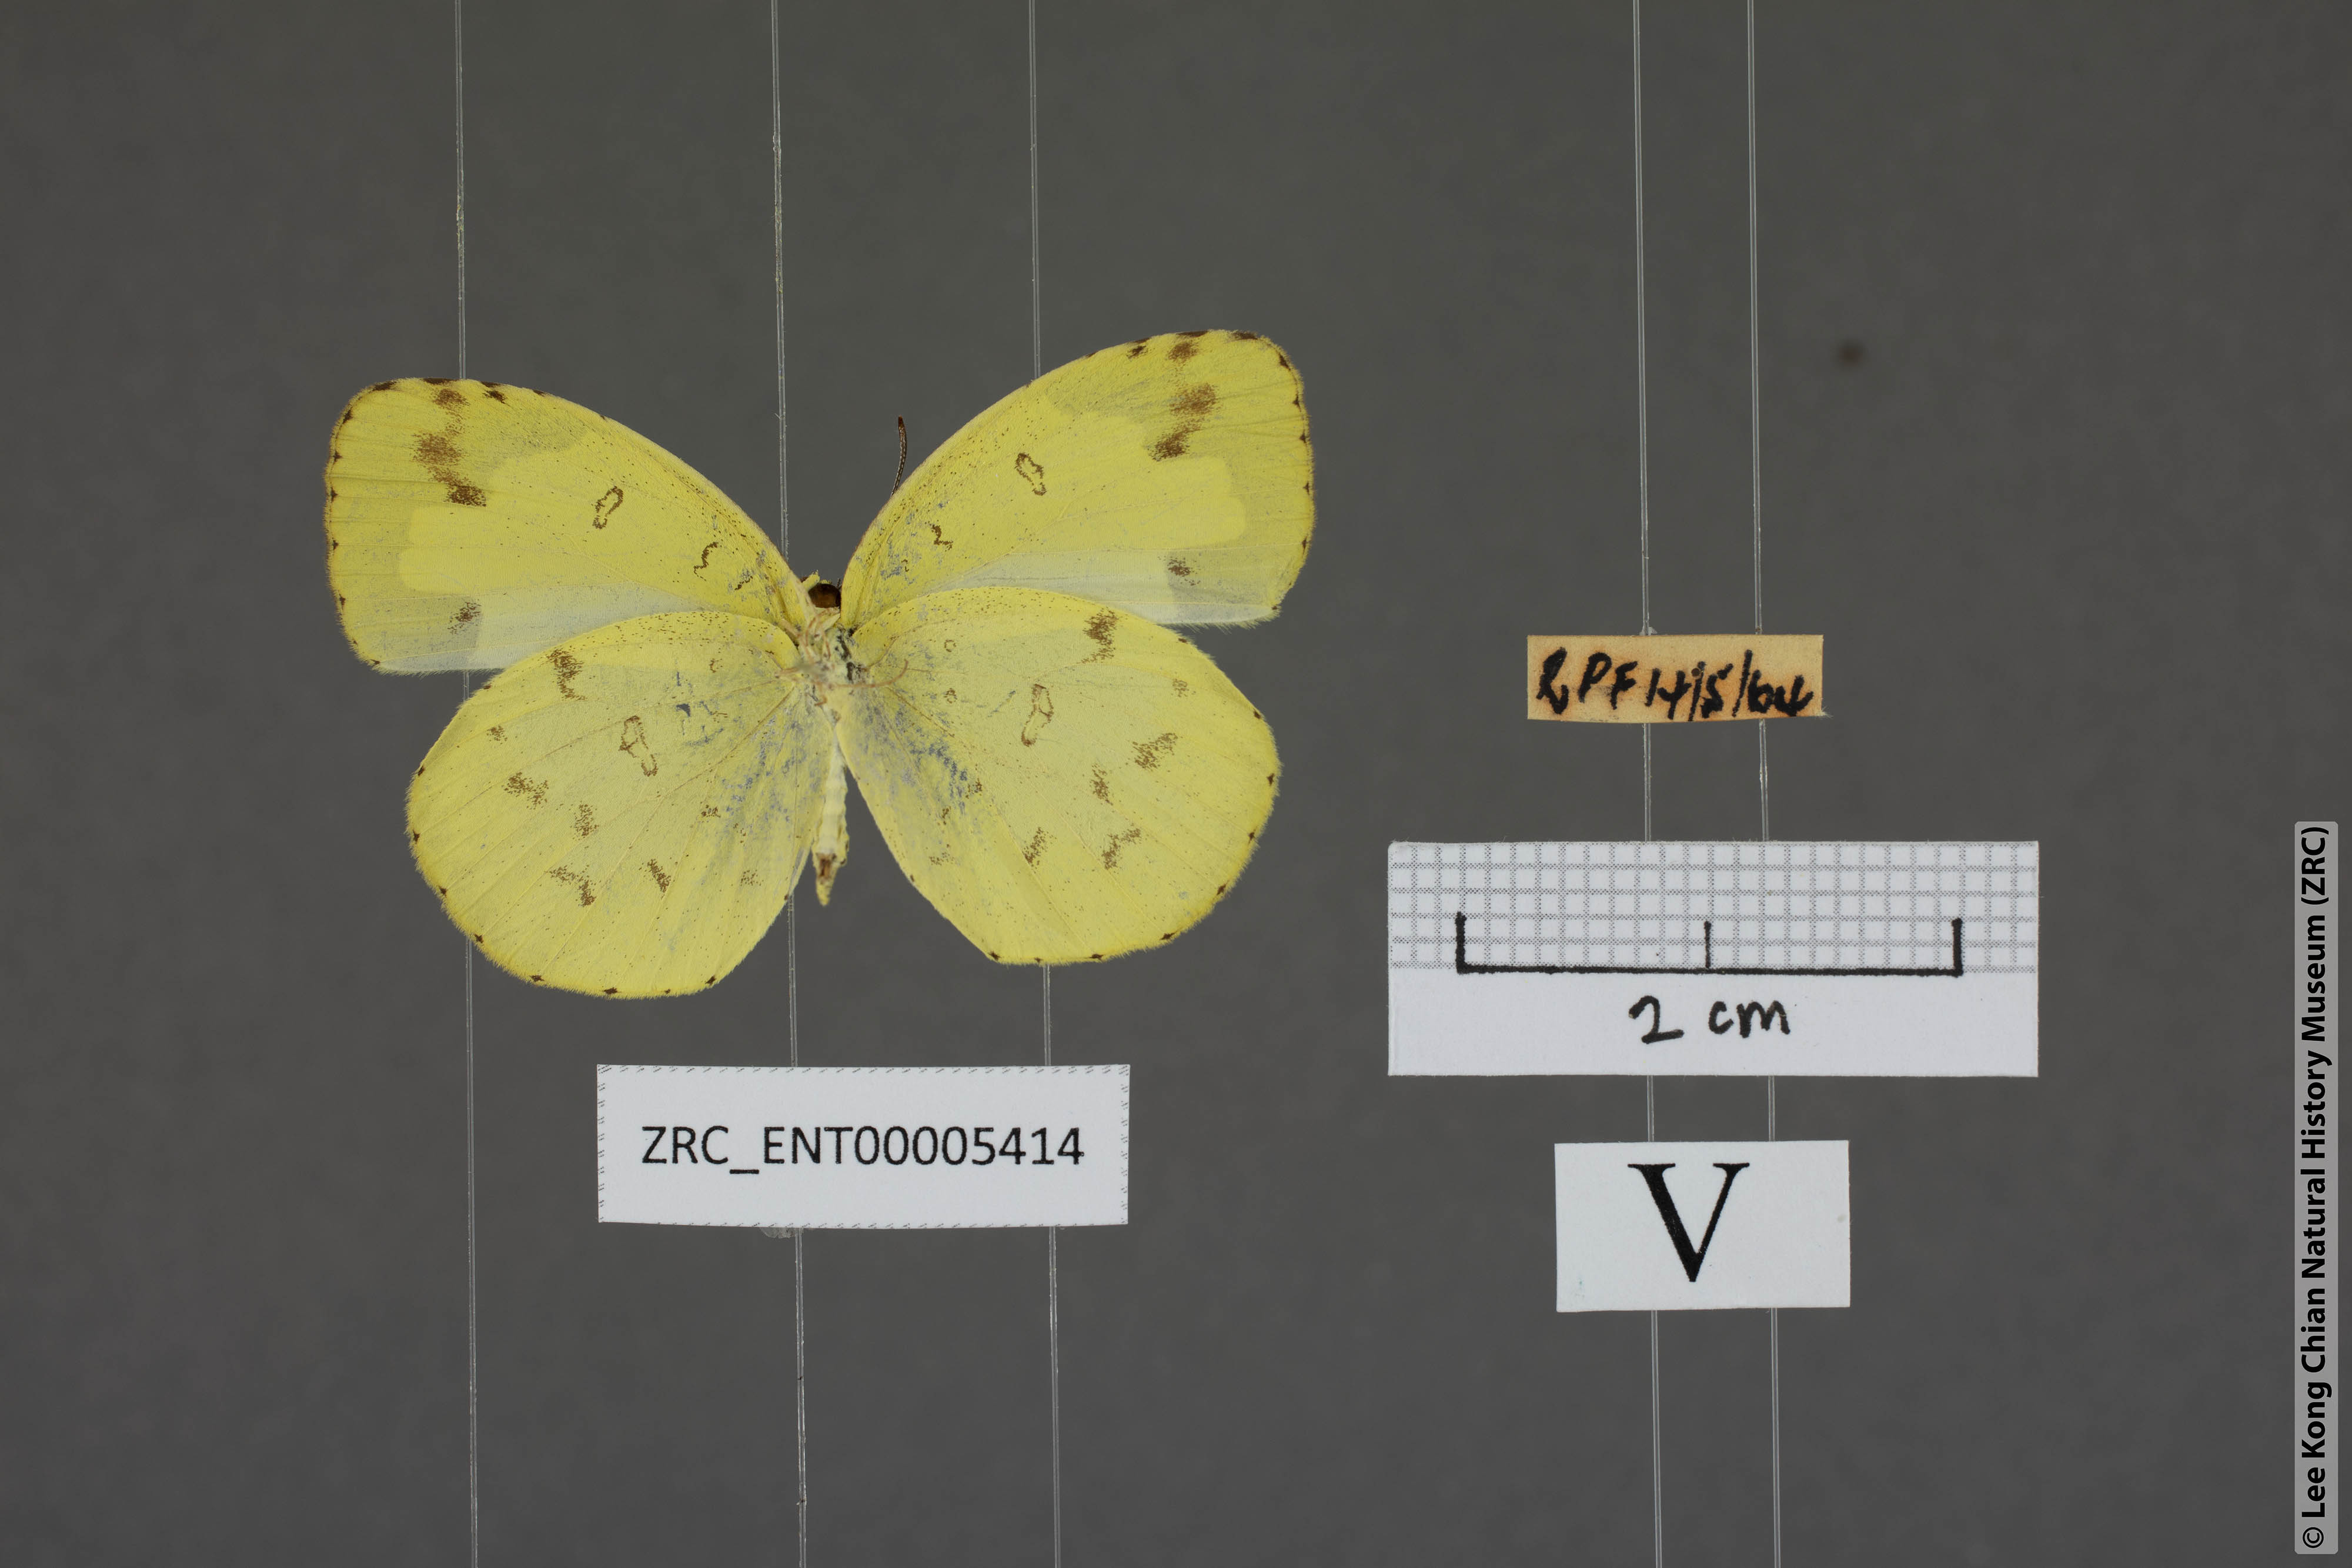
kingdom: Animalia
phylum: Arthropoda
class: Insecta
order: Lepidoptera
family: Pieridae
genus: Eurema
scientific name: Eurema andersoni
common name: One-spot yellow grass
